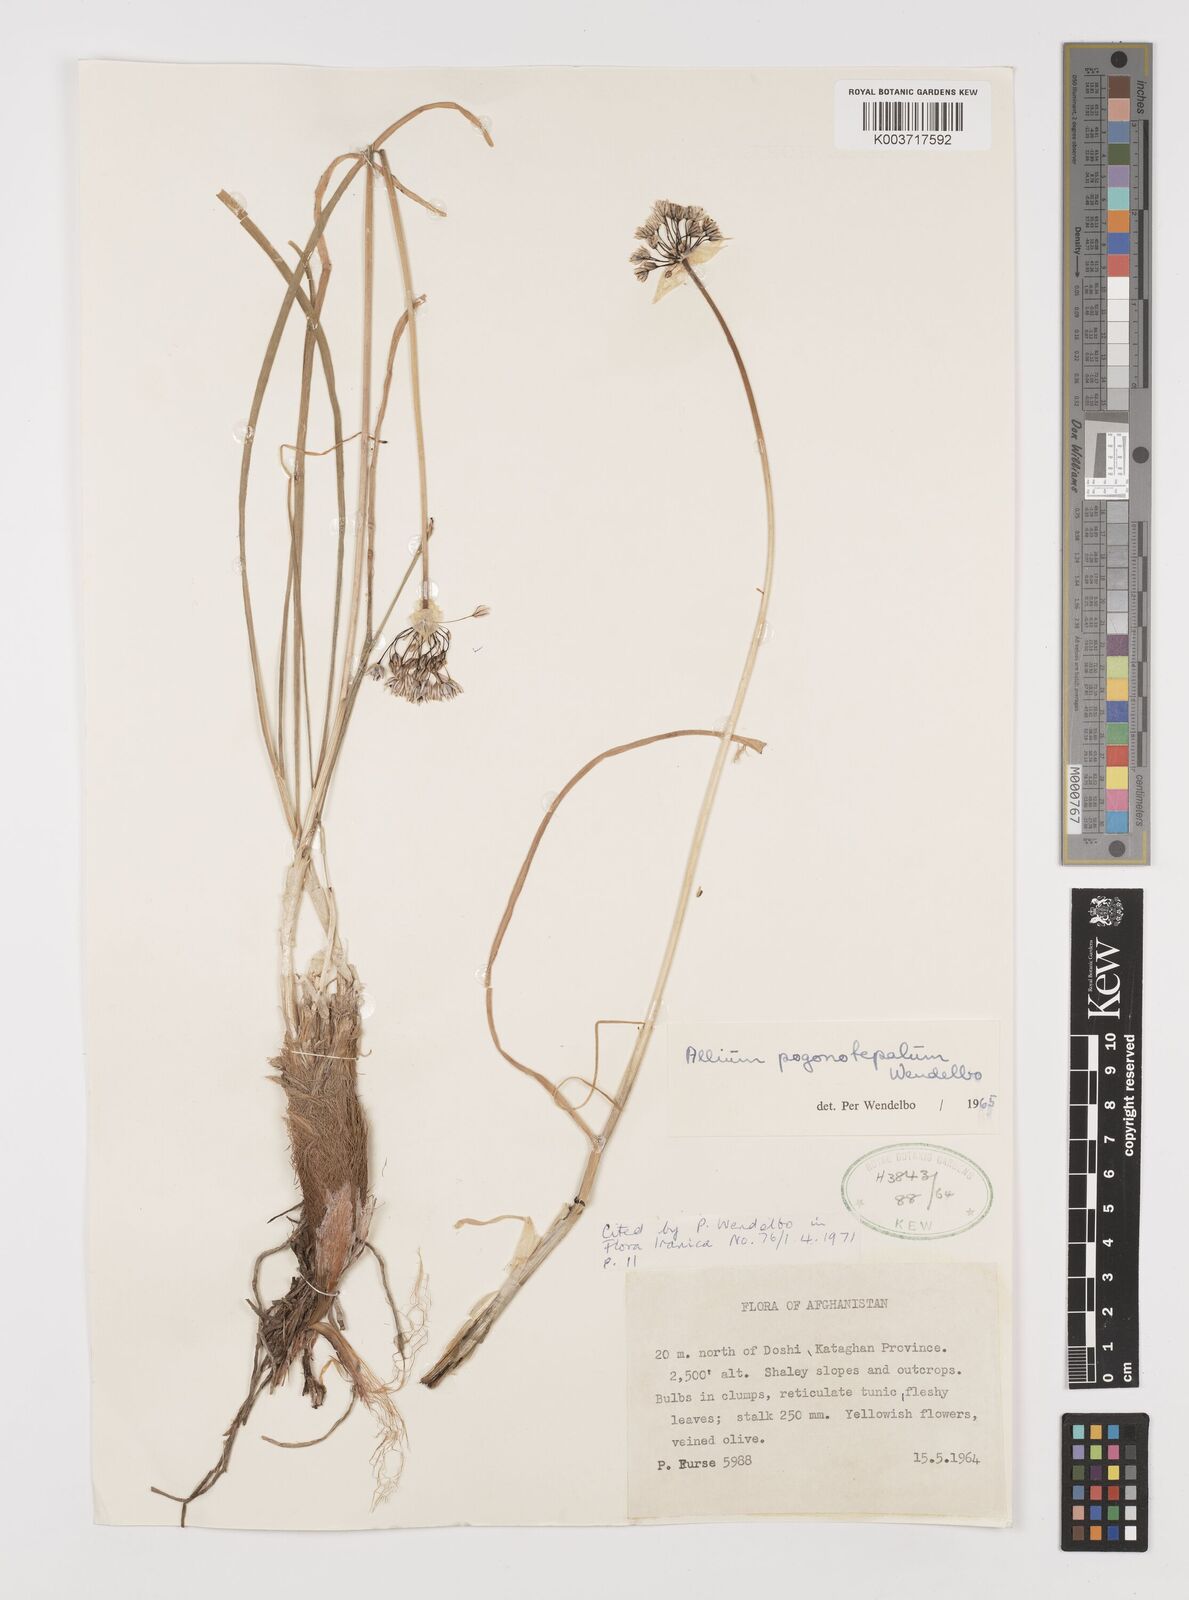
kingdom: Plantae
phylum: Tracheophyta
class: Liliopsida
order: Asparagales
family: Amaryllidaceae
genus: Allium
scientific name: Allium pogonotepalum
